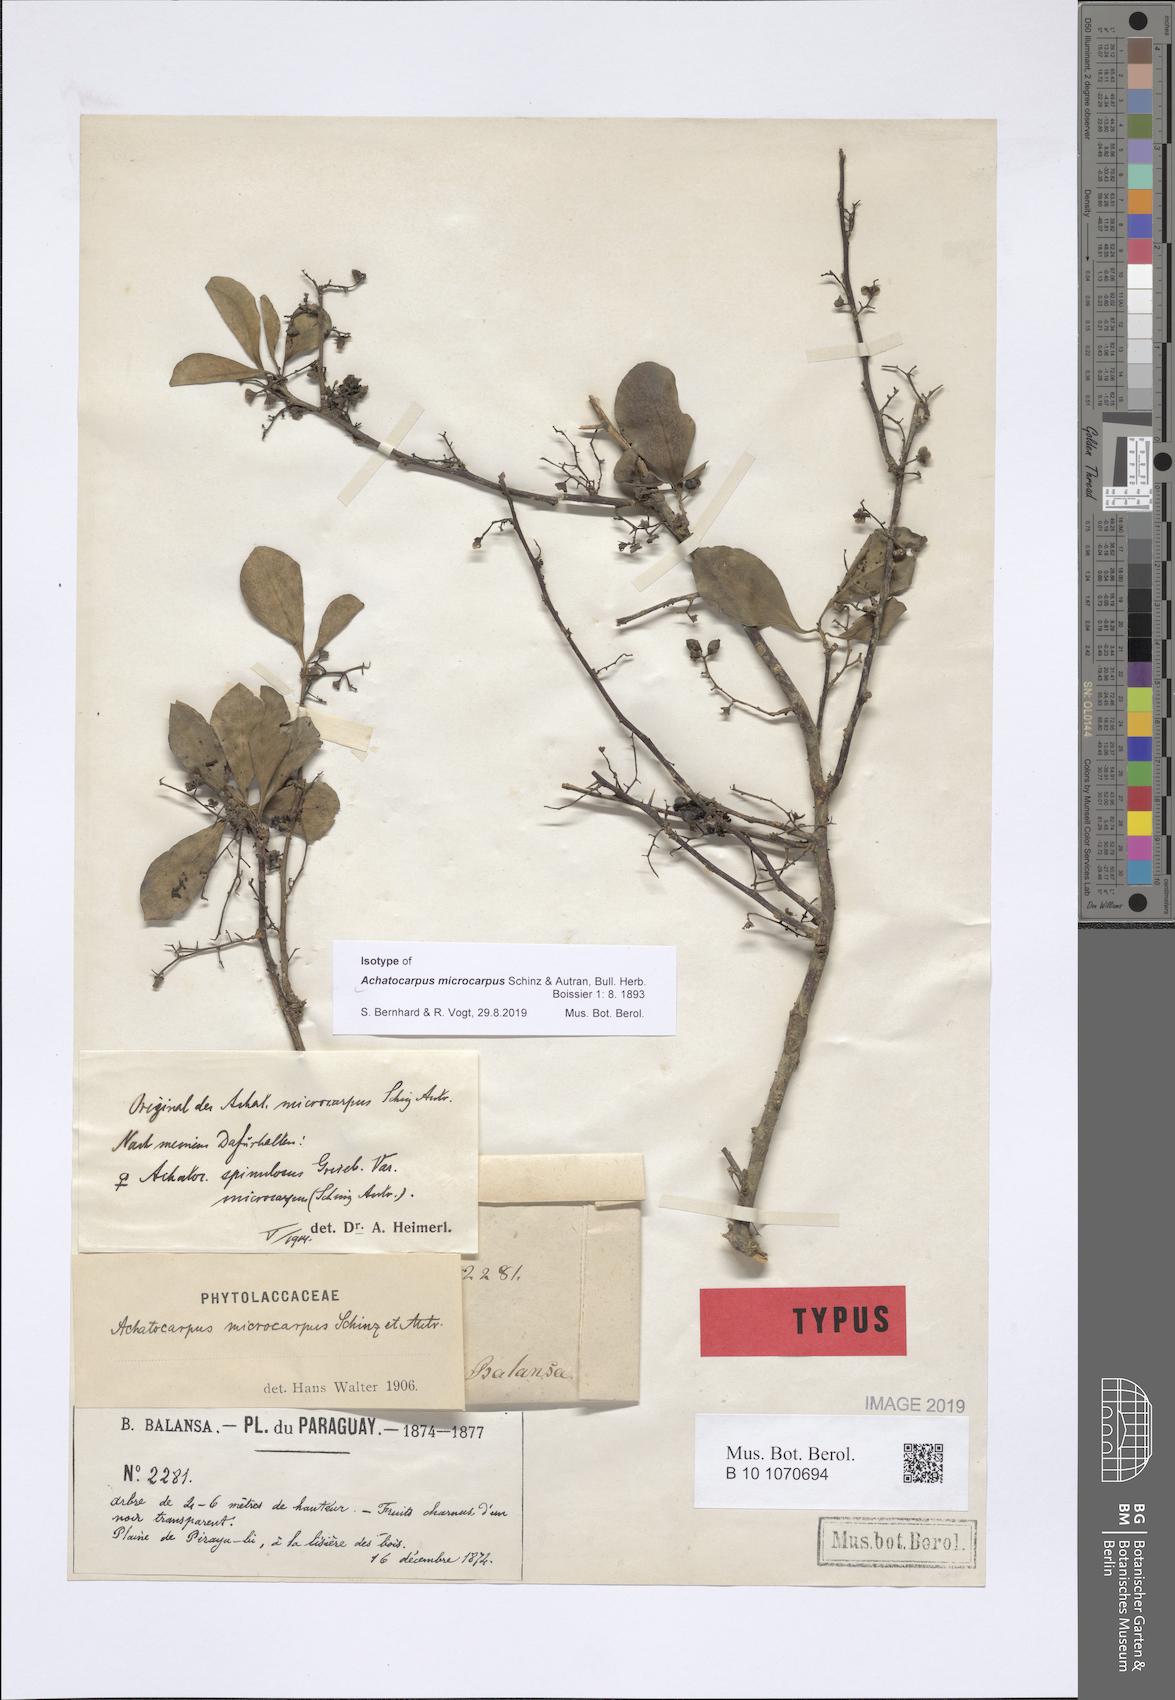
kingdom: Plantae
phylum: Tracheophyta
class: Magnoliopsida
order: Caryophyllales
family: Achatocarpaceae
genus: Achatocarpus
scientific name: Achatocarpus microcarpus
